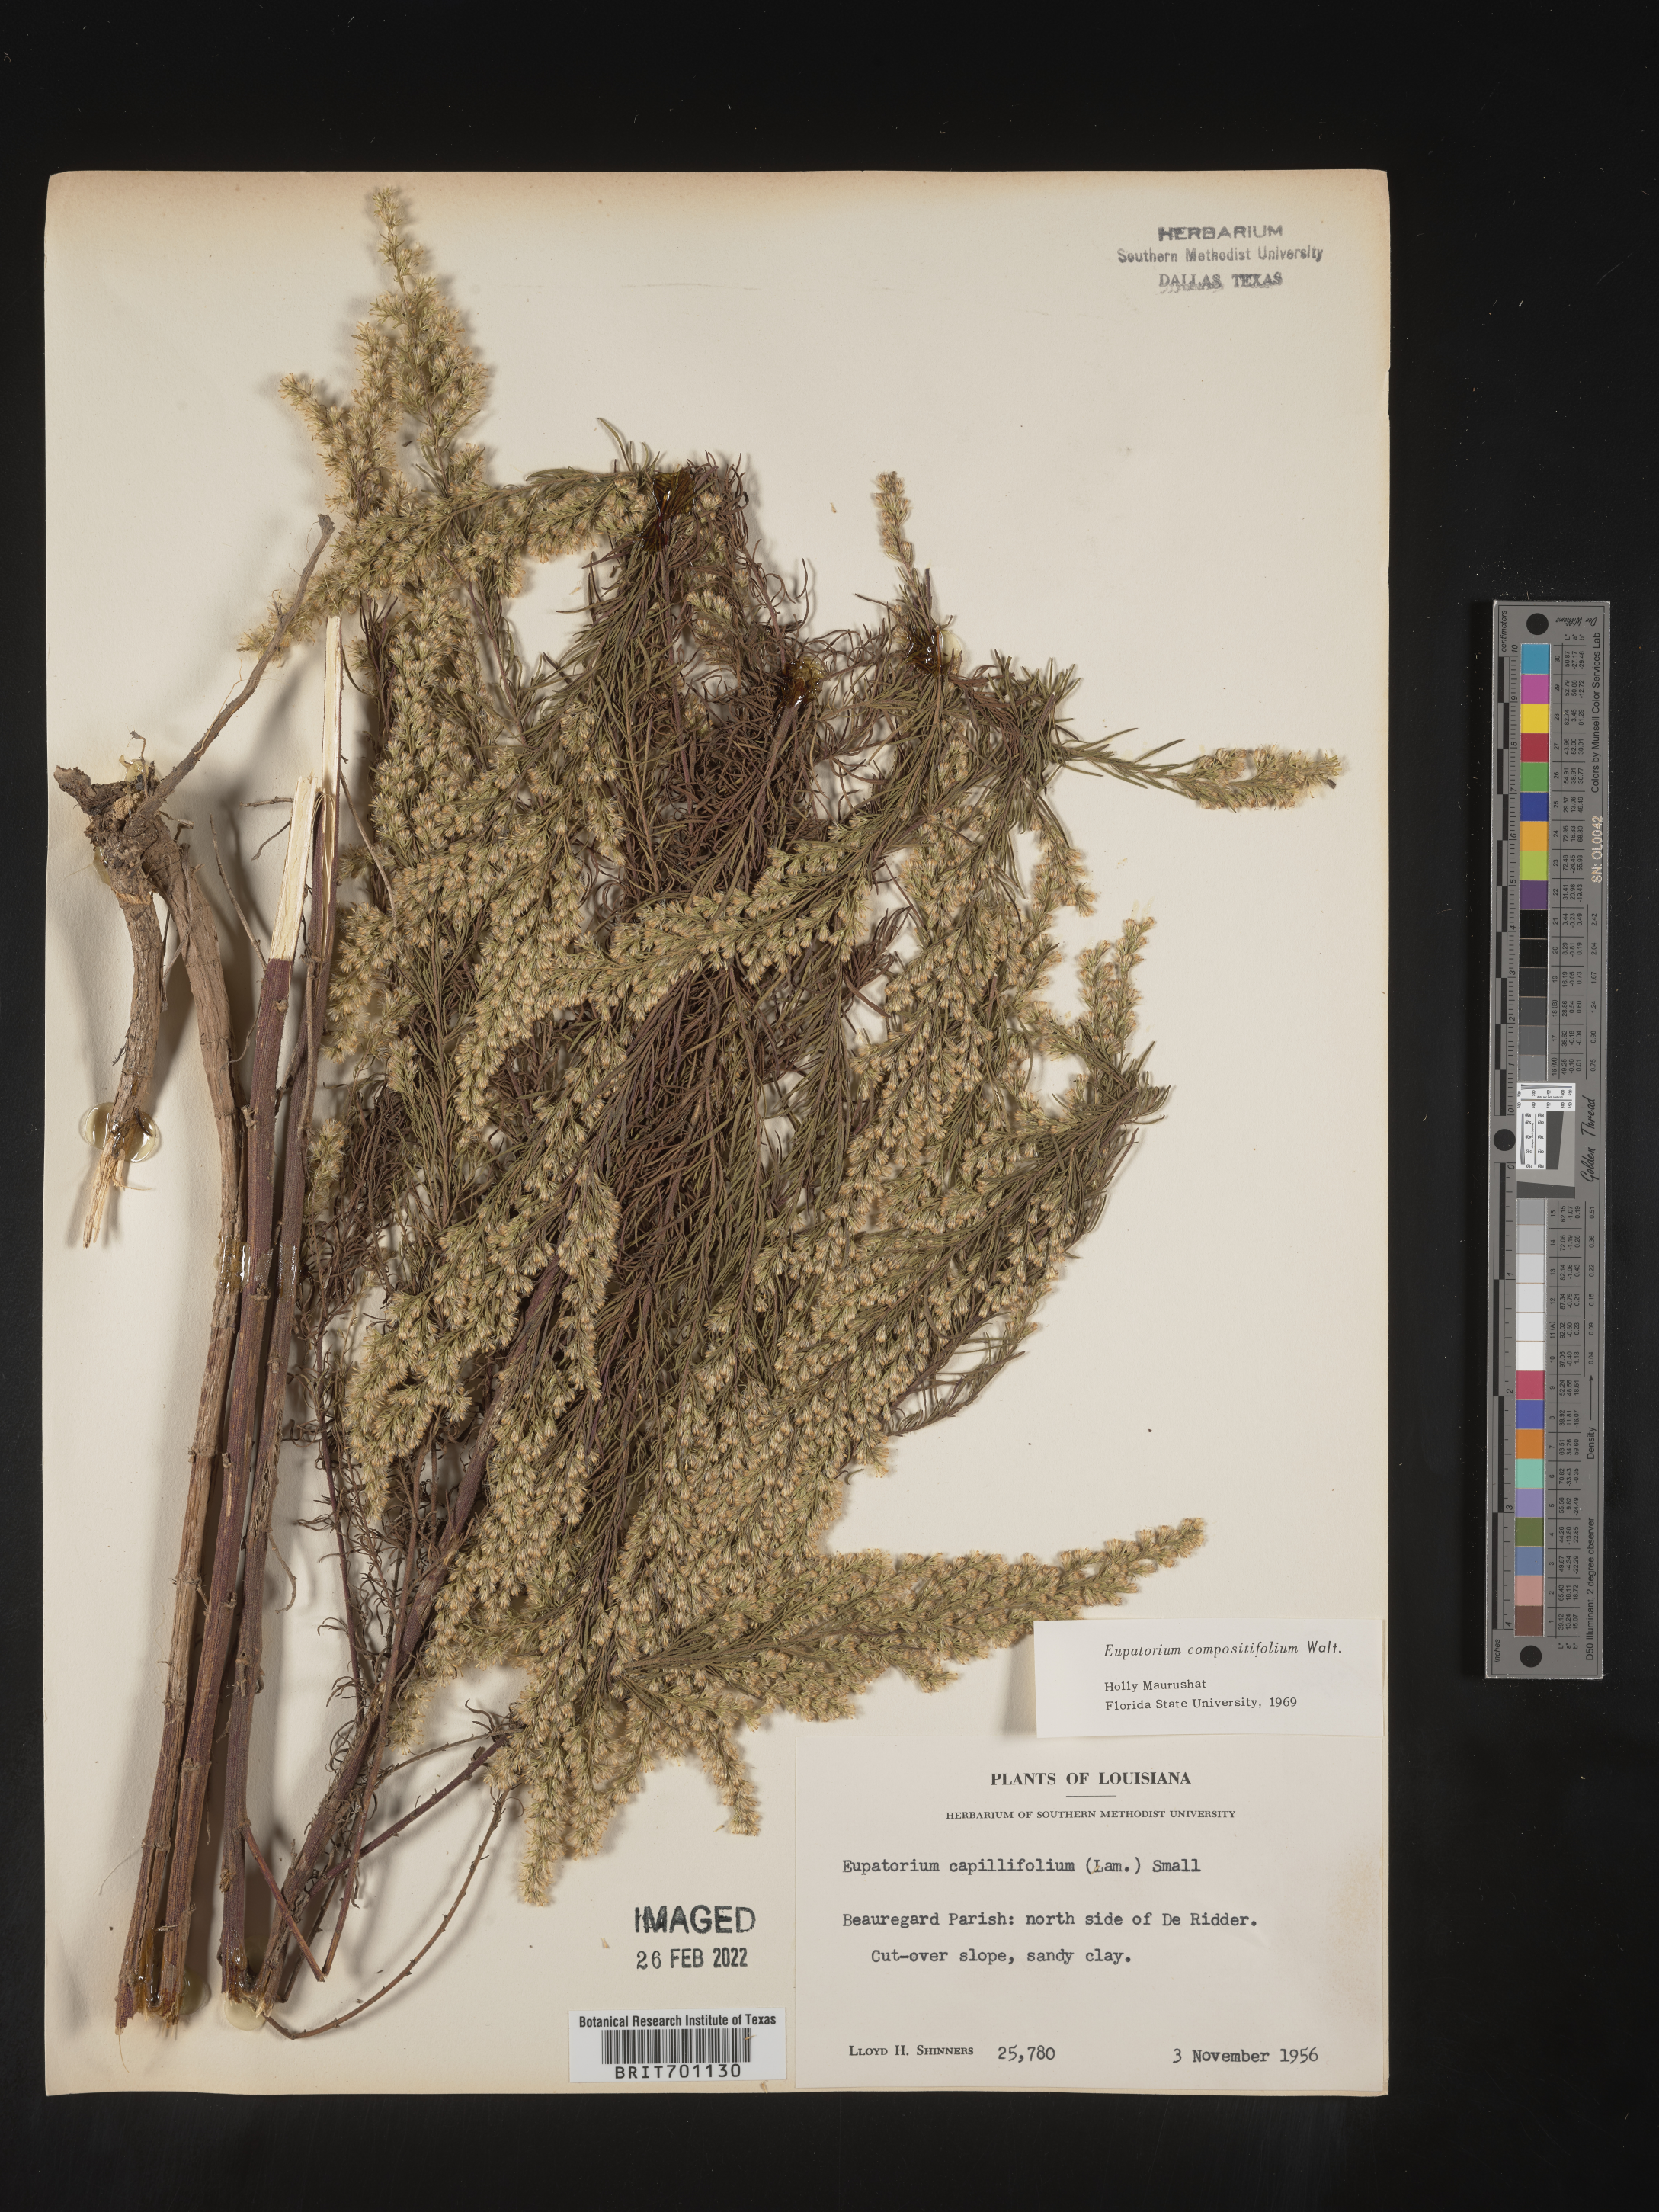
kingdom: Plantae
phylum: Tracheophyta
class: Magnoliopsida
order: Asterales
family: Asteraceae
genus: Eupatorium
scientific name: Eupatorium compositifolium
